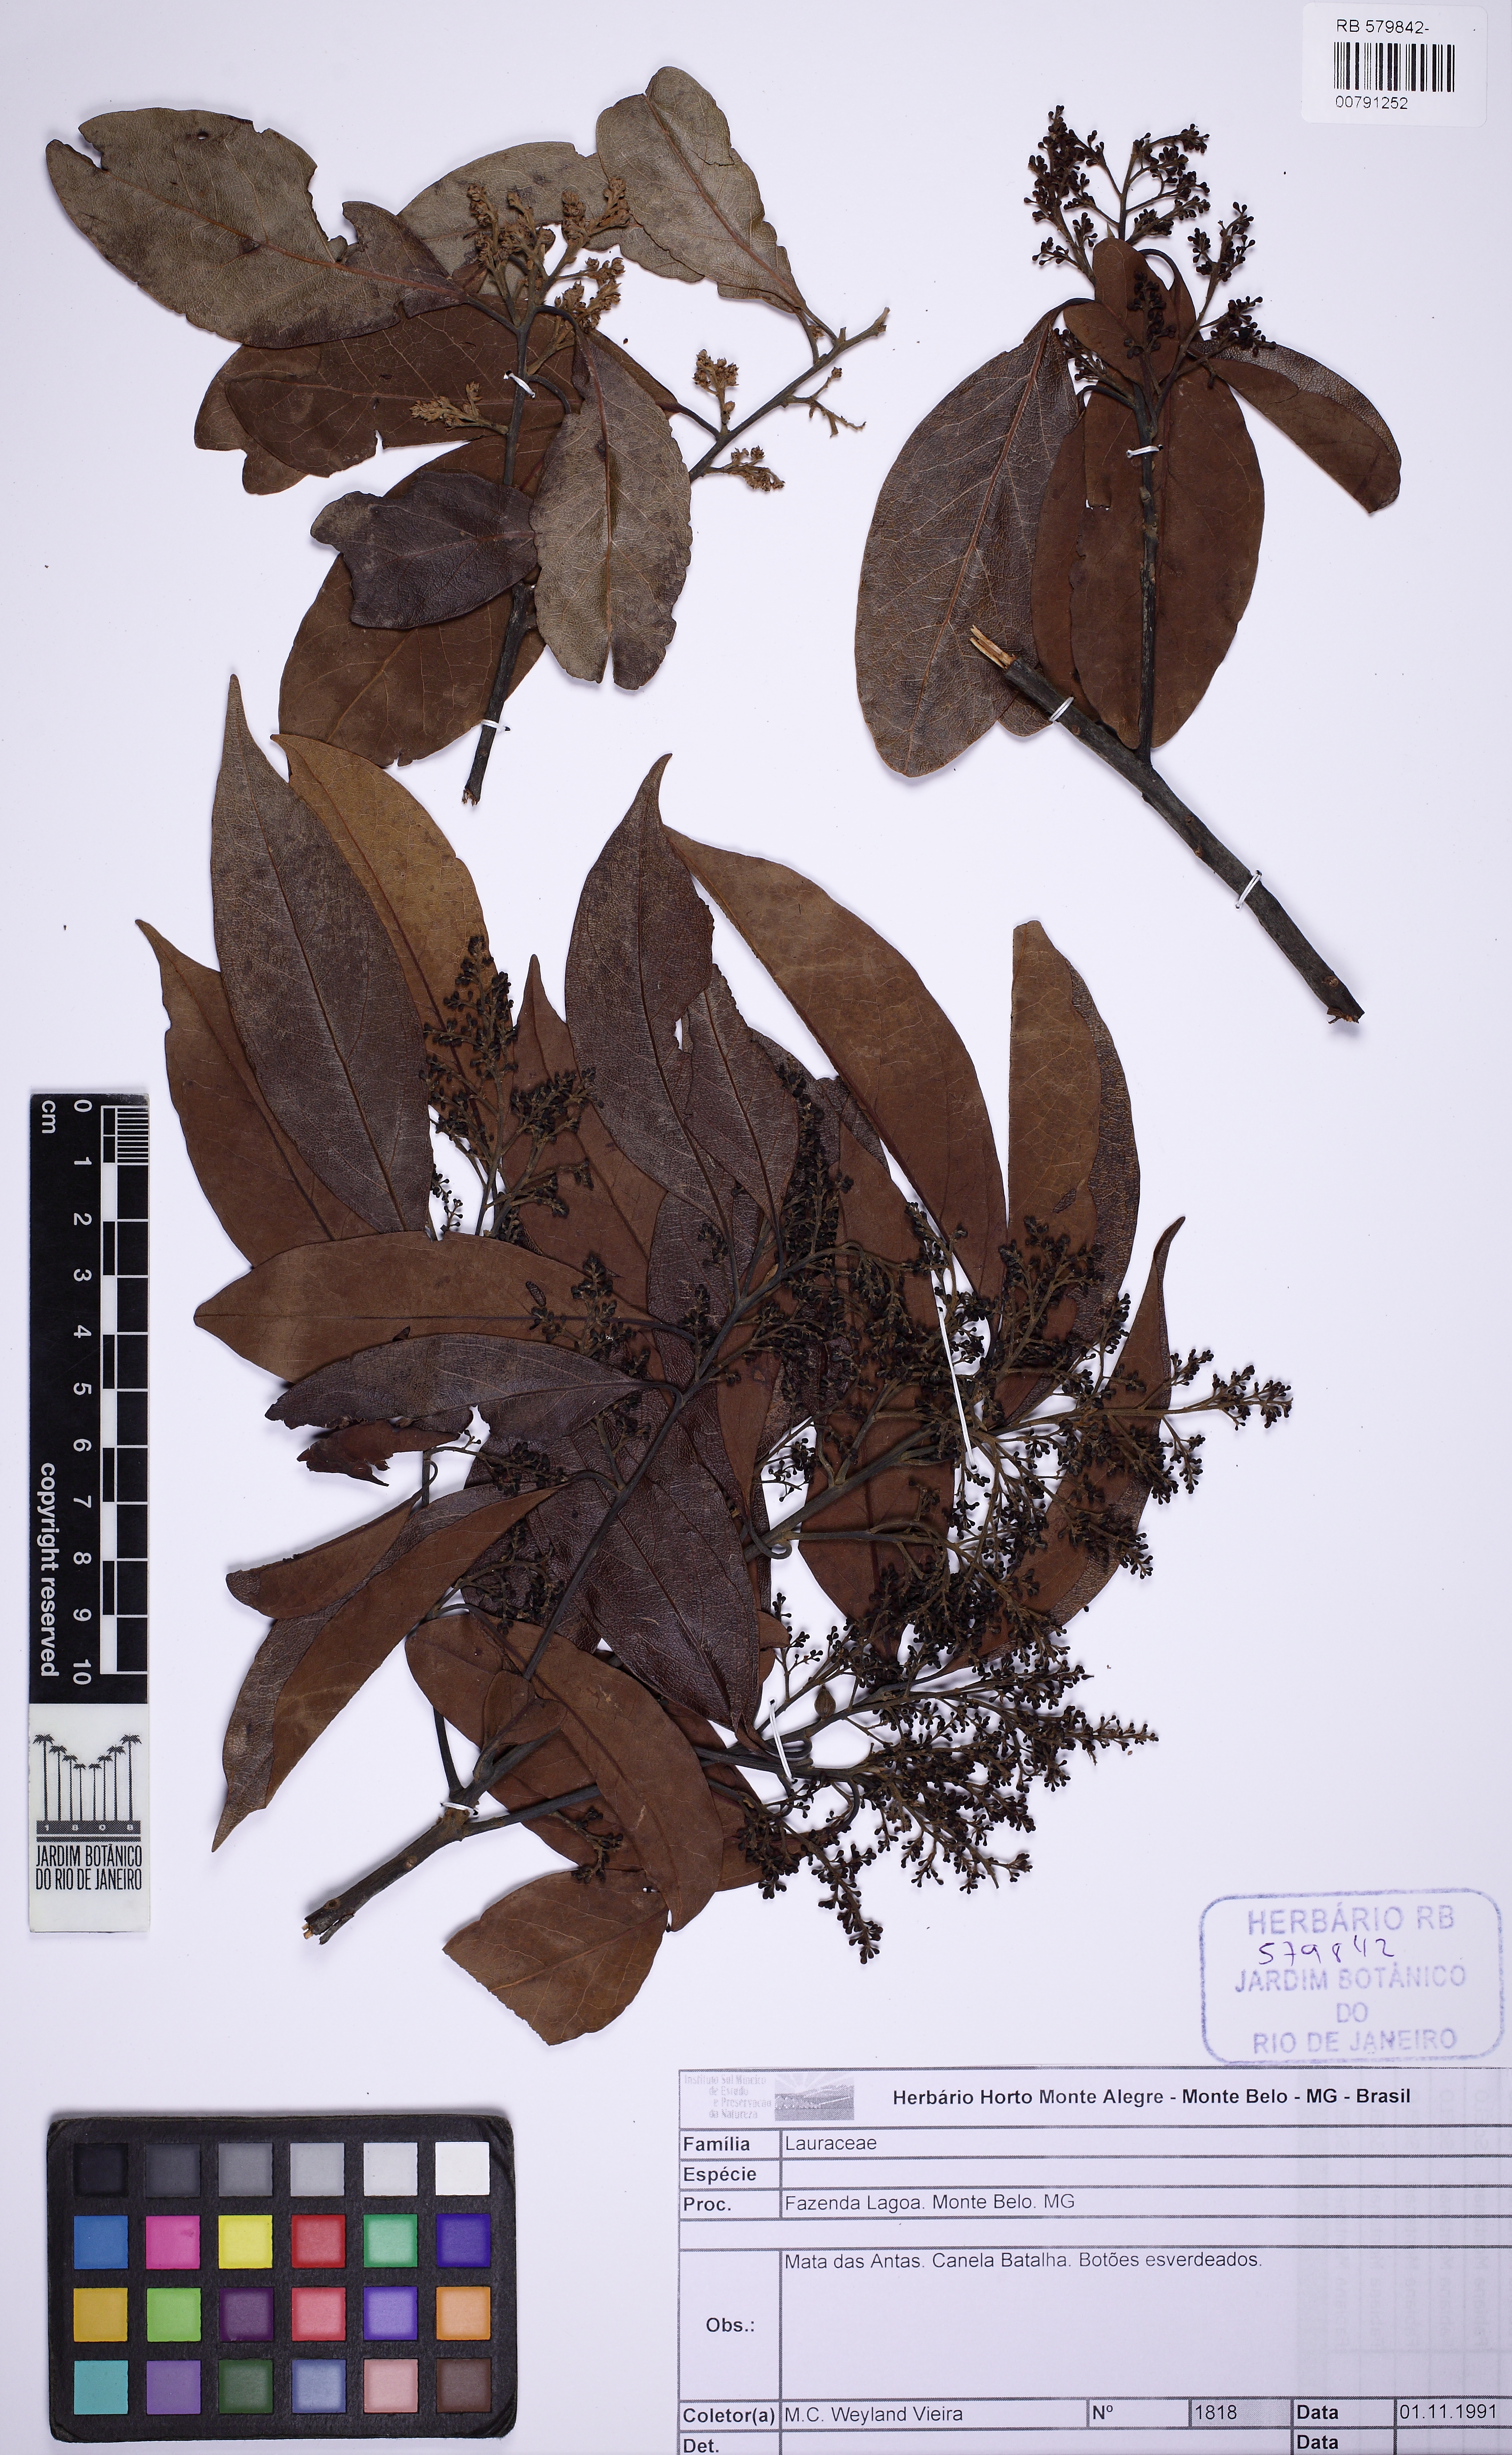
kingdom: Plantae
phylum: Tracheophyta
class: Magnoliopsida
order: Laurales
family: Lauraceae
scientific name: Lauraceae
